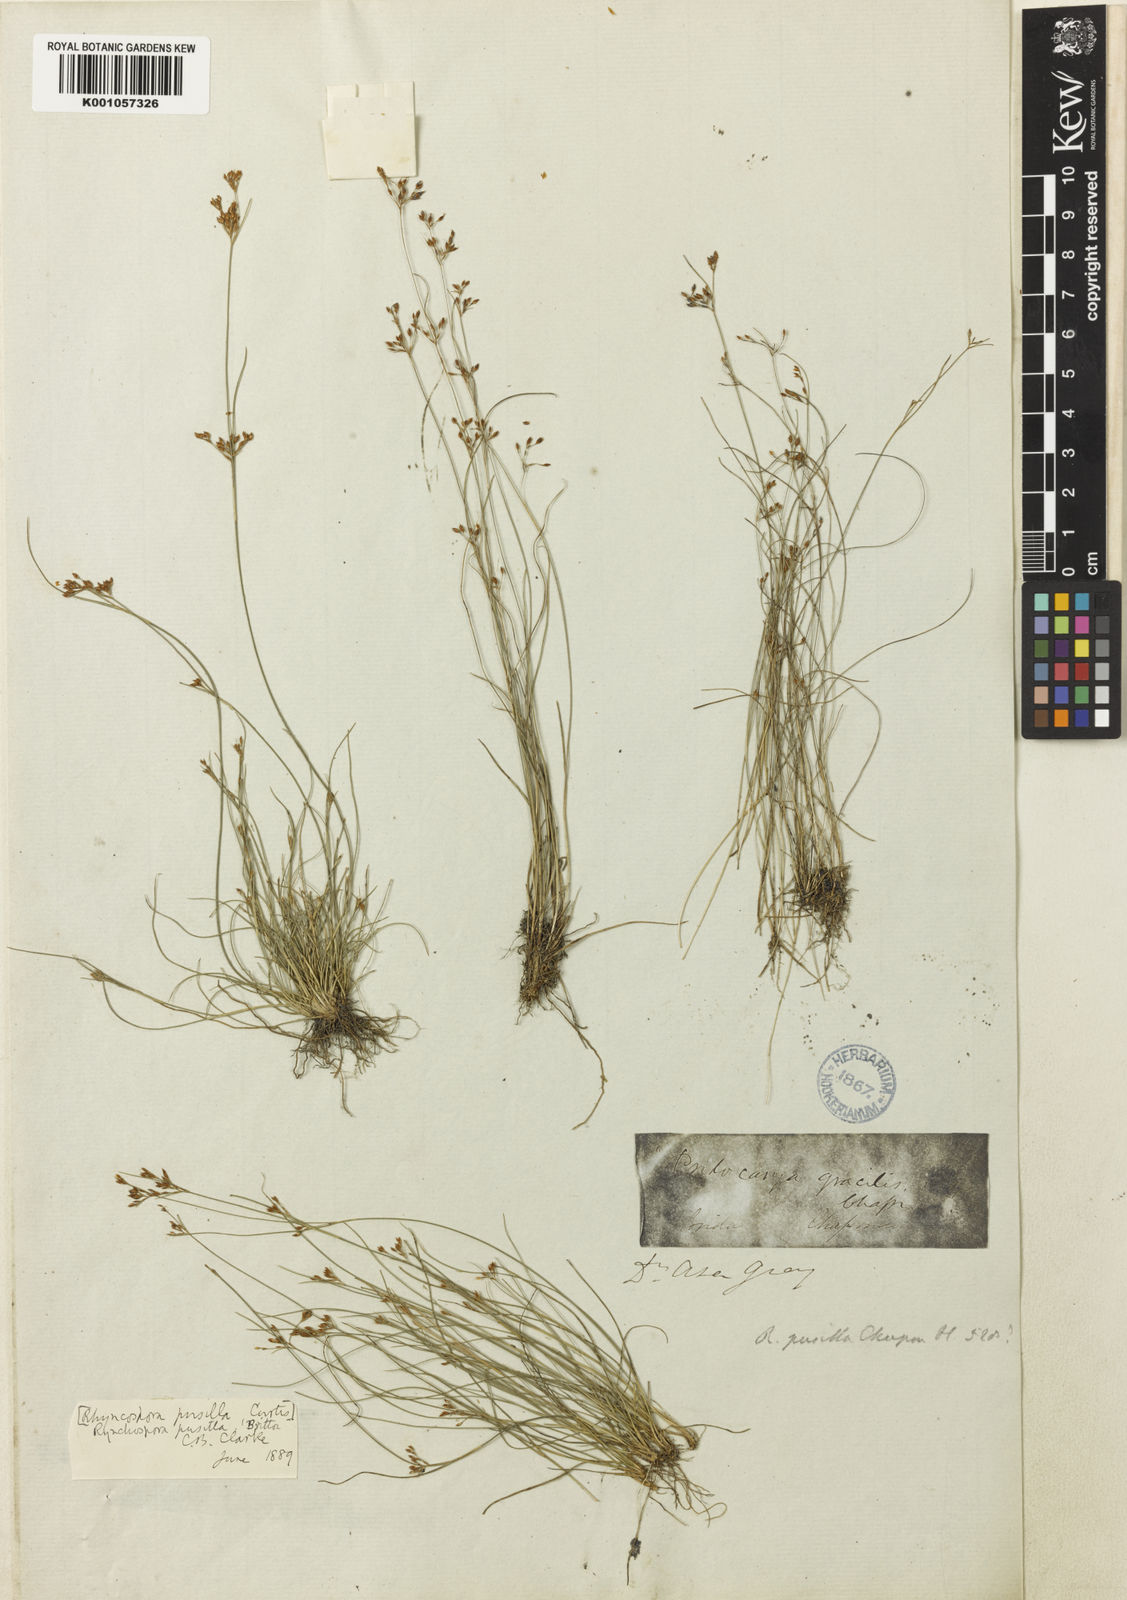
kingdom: Plantae
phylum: Tracheophyta
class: Liliopsida
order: Poales
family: Cyperaceae
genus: Rhynchospora
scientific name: Rhynchospora
